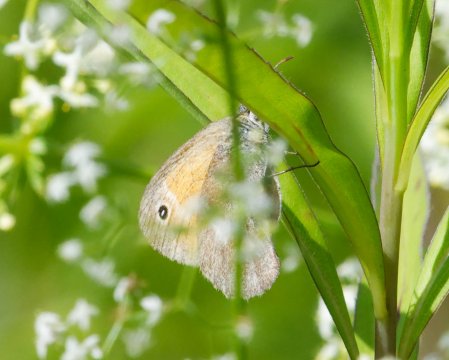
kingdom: Animalia
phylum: Arthropoda
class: Insecta
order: Lepidoptera
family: Nymphalidae
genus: Coenonympha
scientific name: Coenonympha california
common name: California Ringlet
